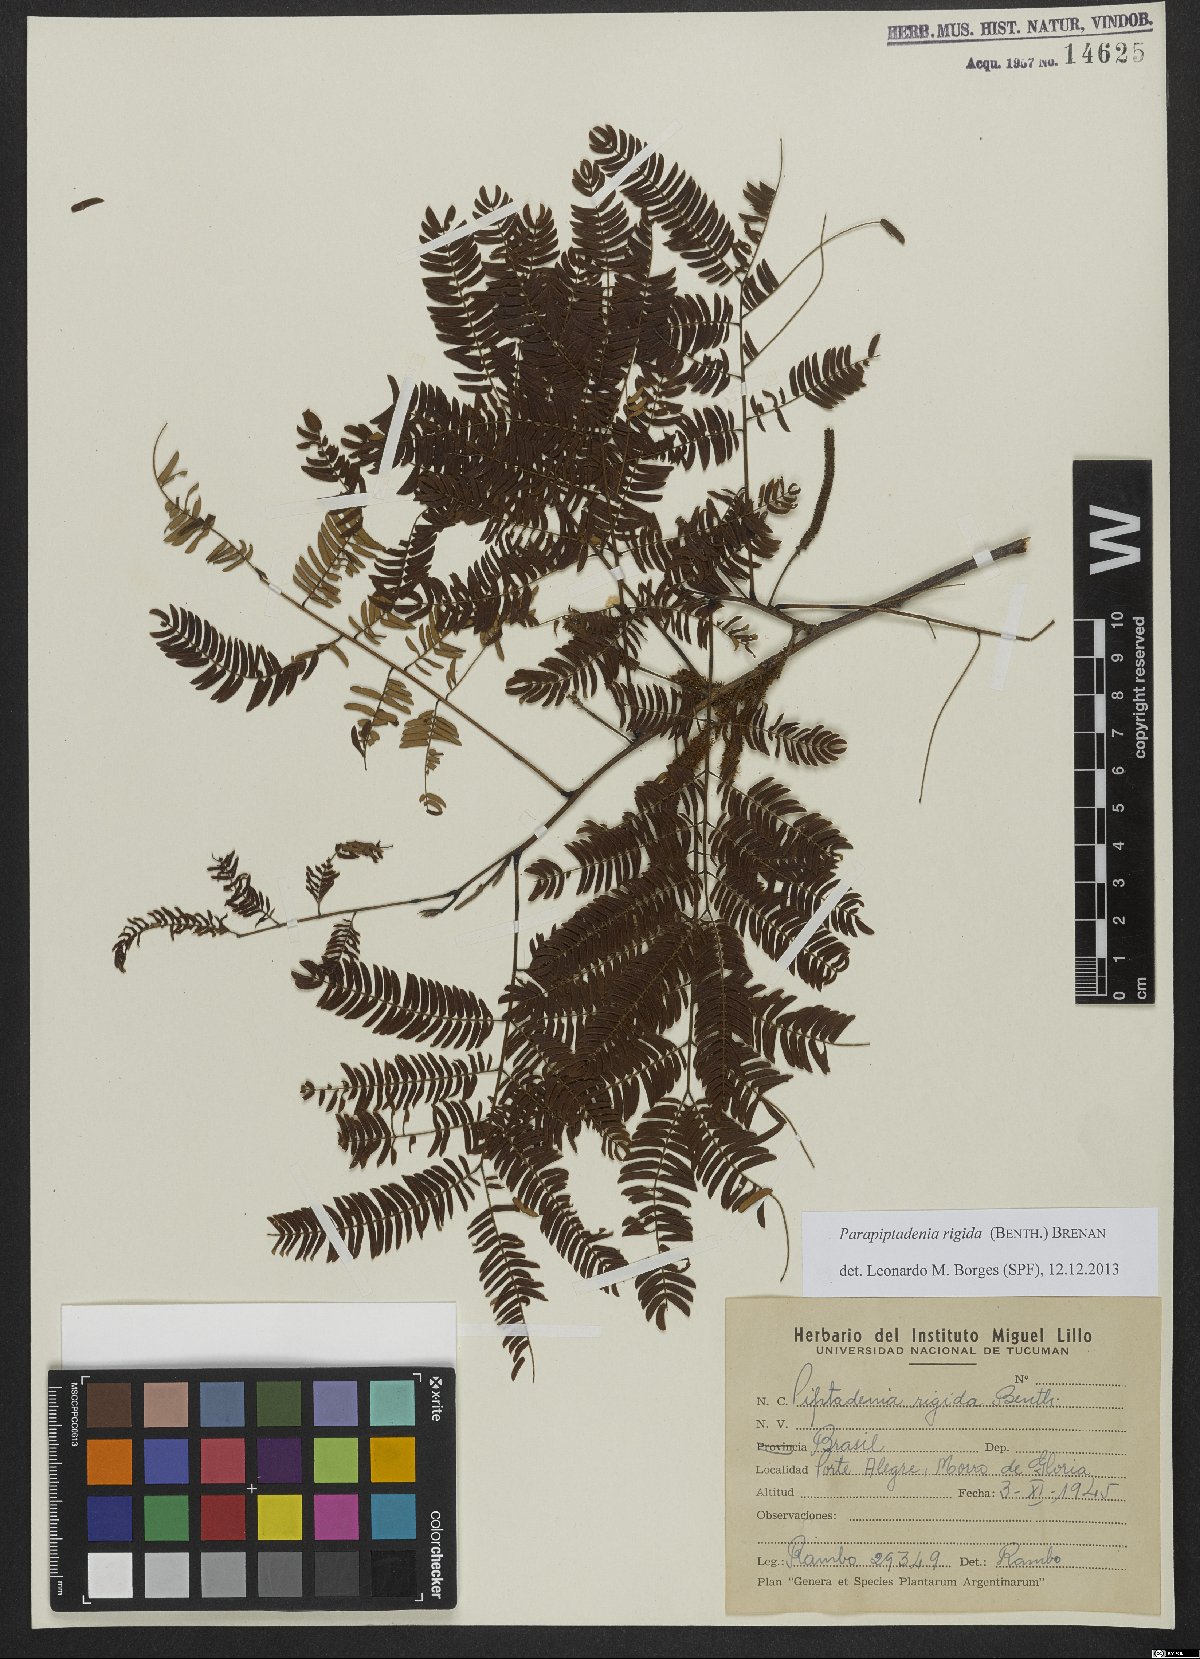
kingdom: Plantae
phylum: Tracheophyta
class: Magnoliopsida
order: Fabales
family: Fabaceae
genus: Parapiptadenia
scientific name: Parapiptadenia rigida
